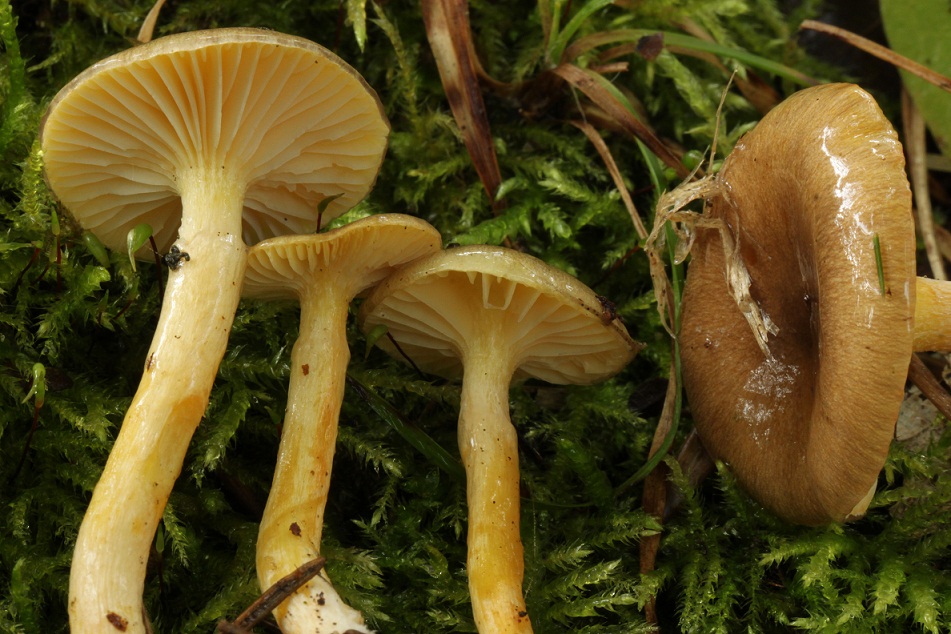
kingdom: Fungi
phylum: Basidiomycota
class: Agaricomycetes
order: Agaricales
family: Hygrophoraceae
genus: Hygrophorus
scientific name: Hygrophorus hypothejus
